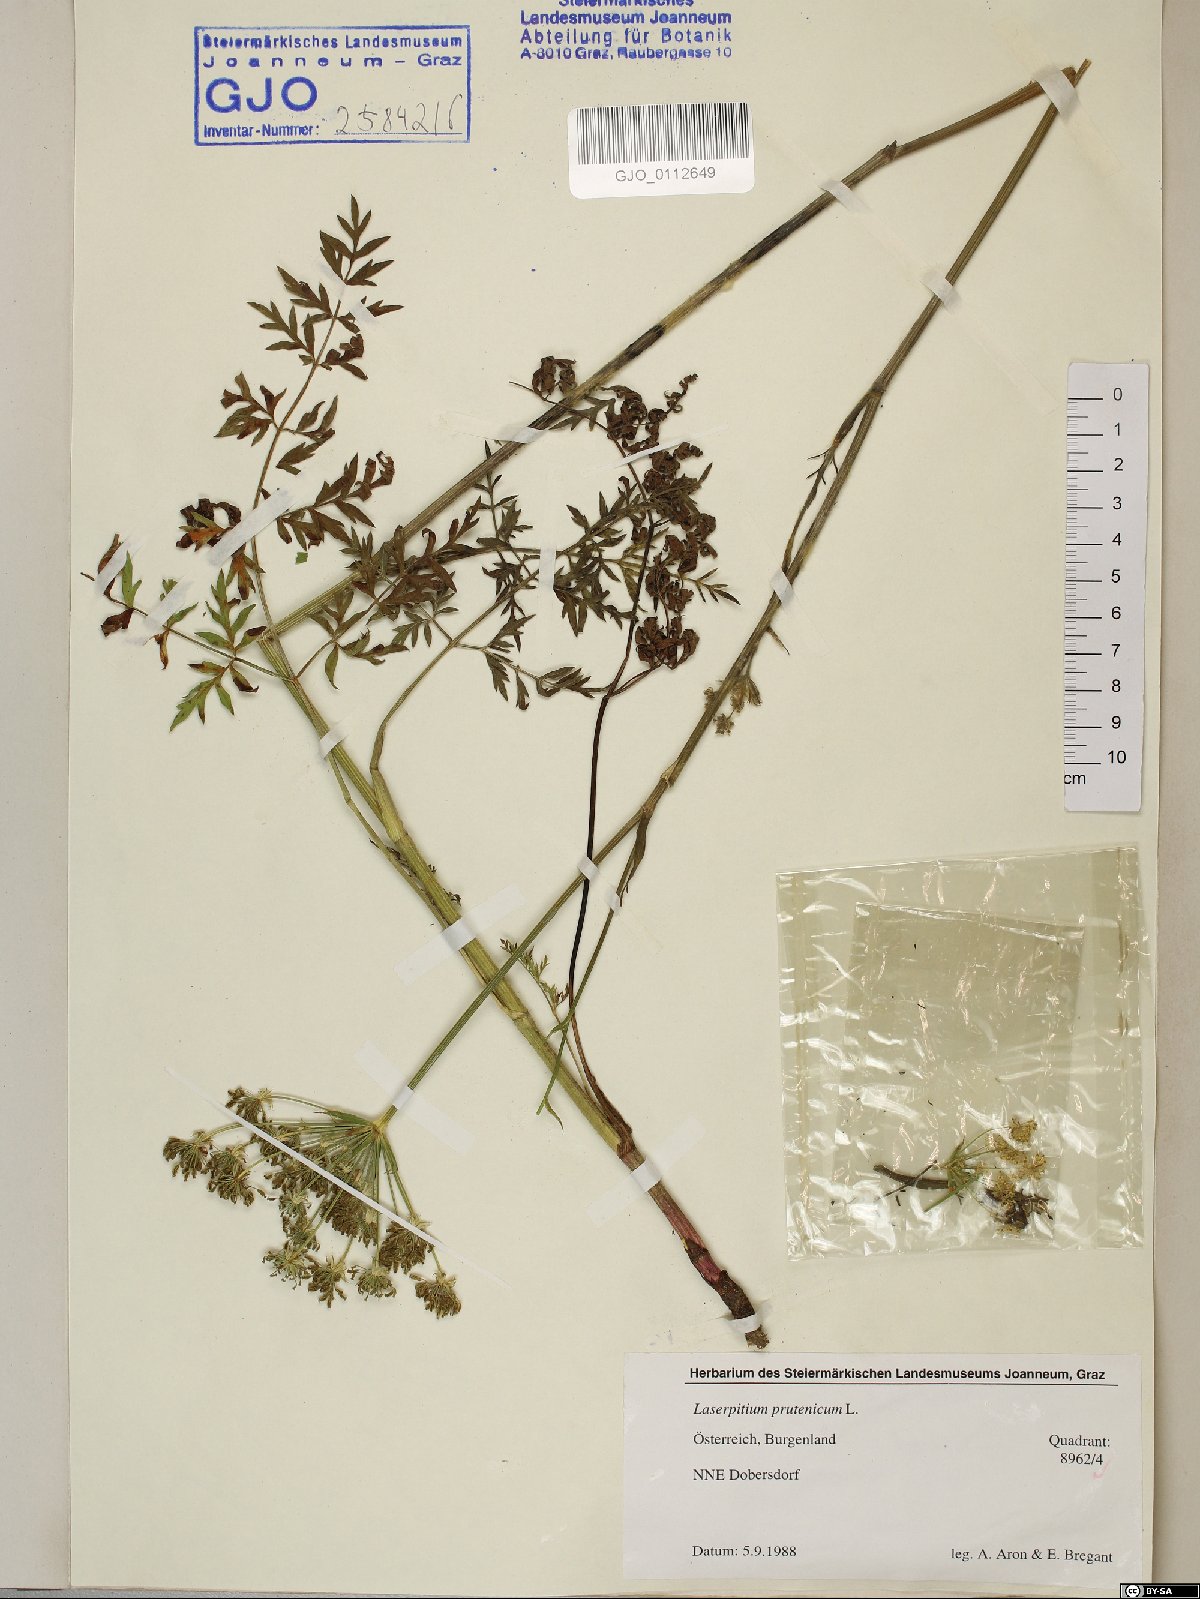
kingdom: Plantae
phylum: Tracheophyta
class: Magnoliopsida
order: Apiales
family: Apiaceae
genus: Silphiodaucus
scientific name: Silphiodaucus prutenicus
